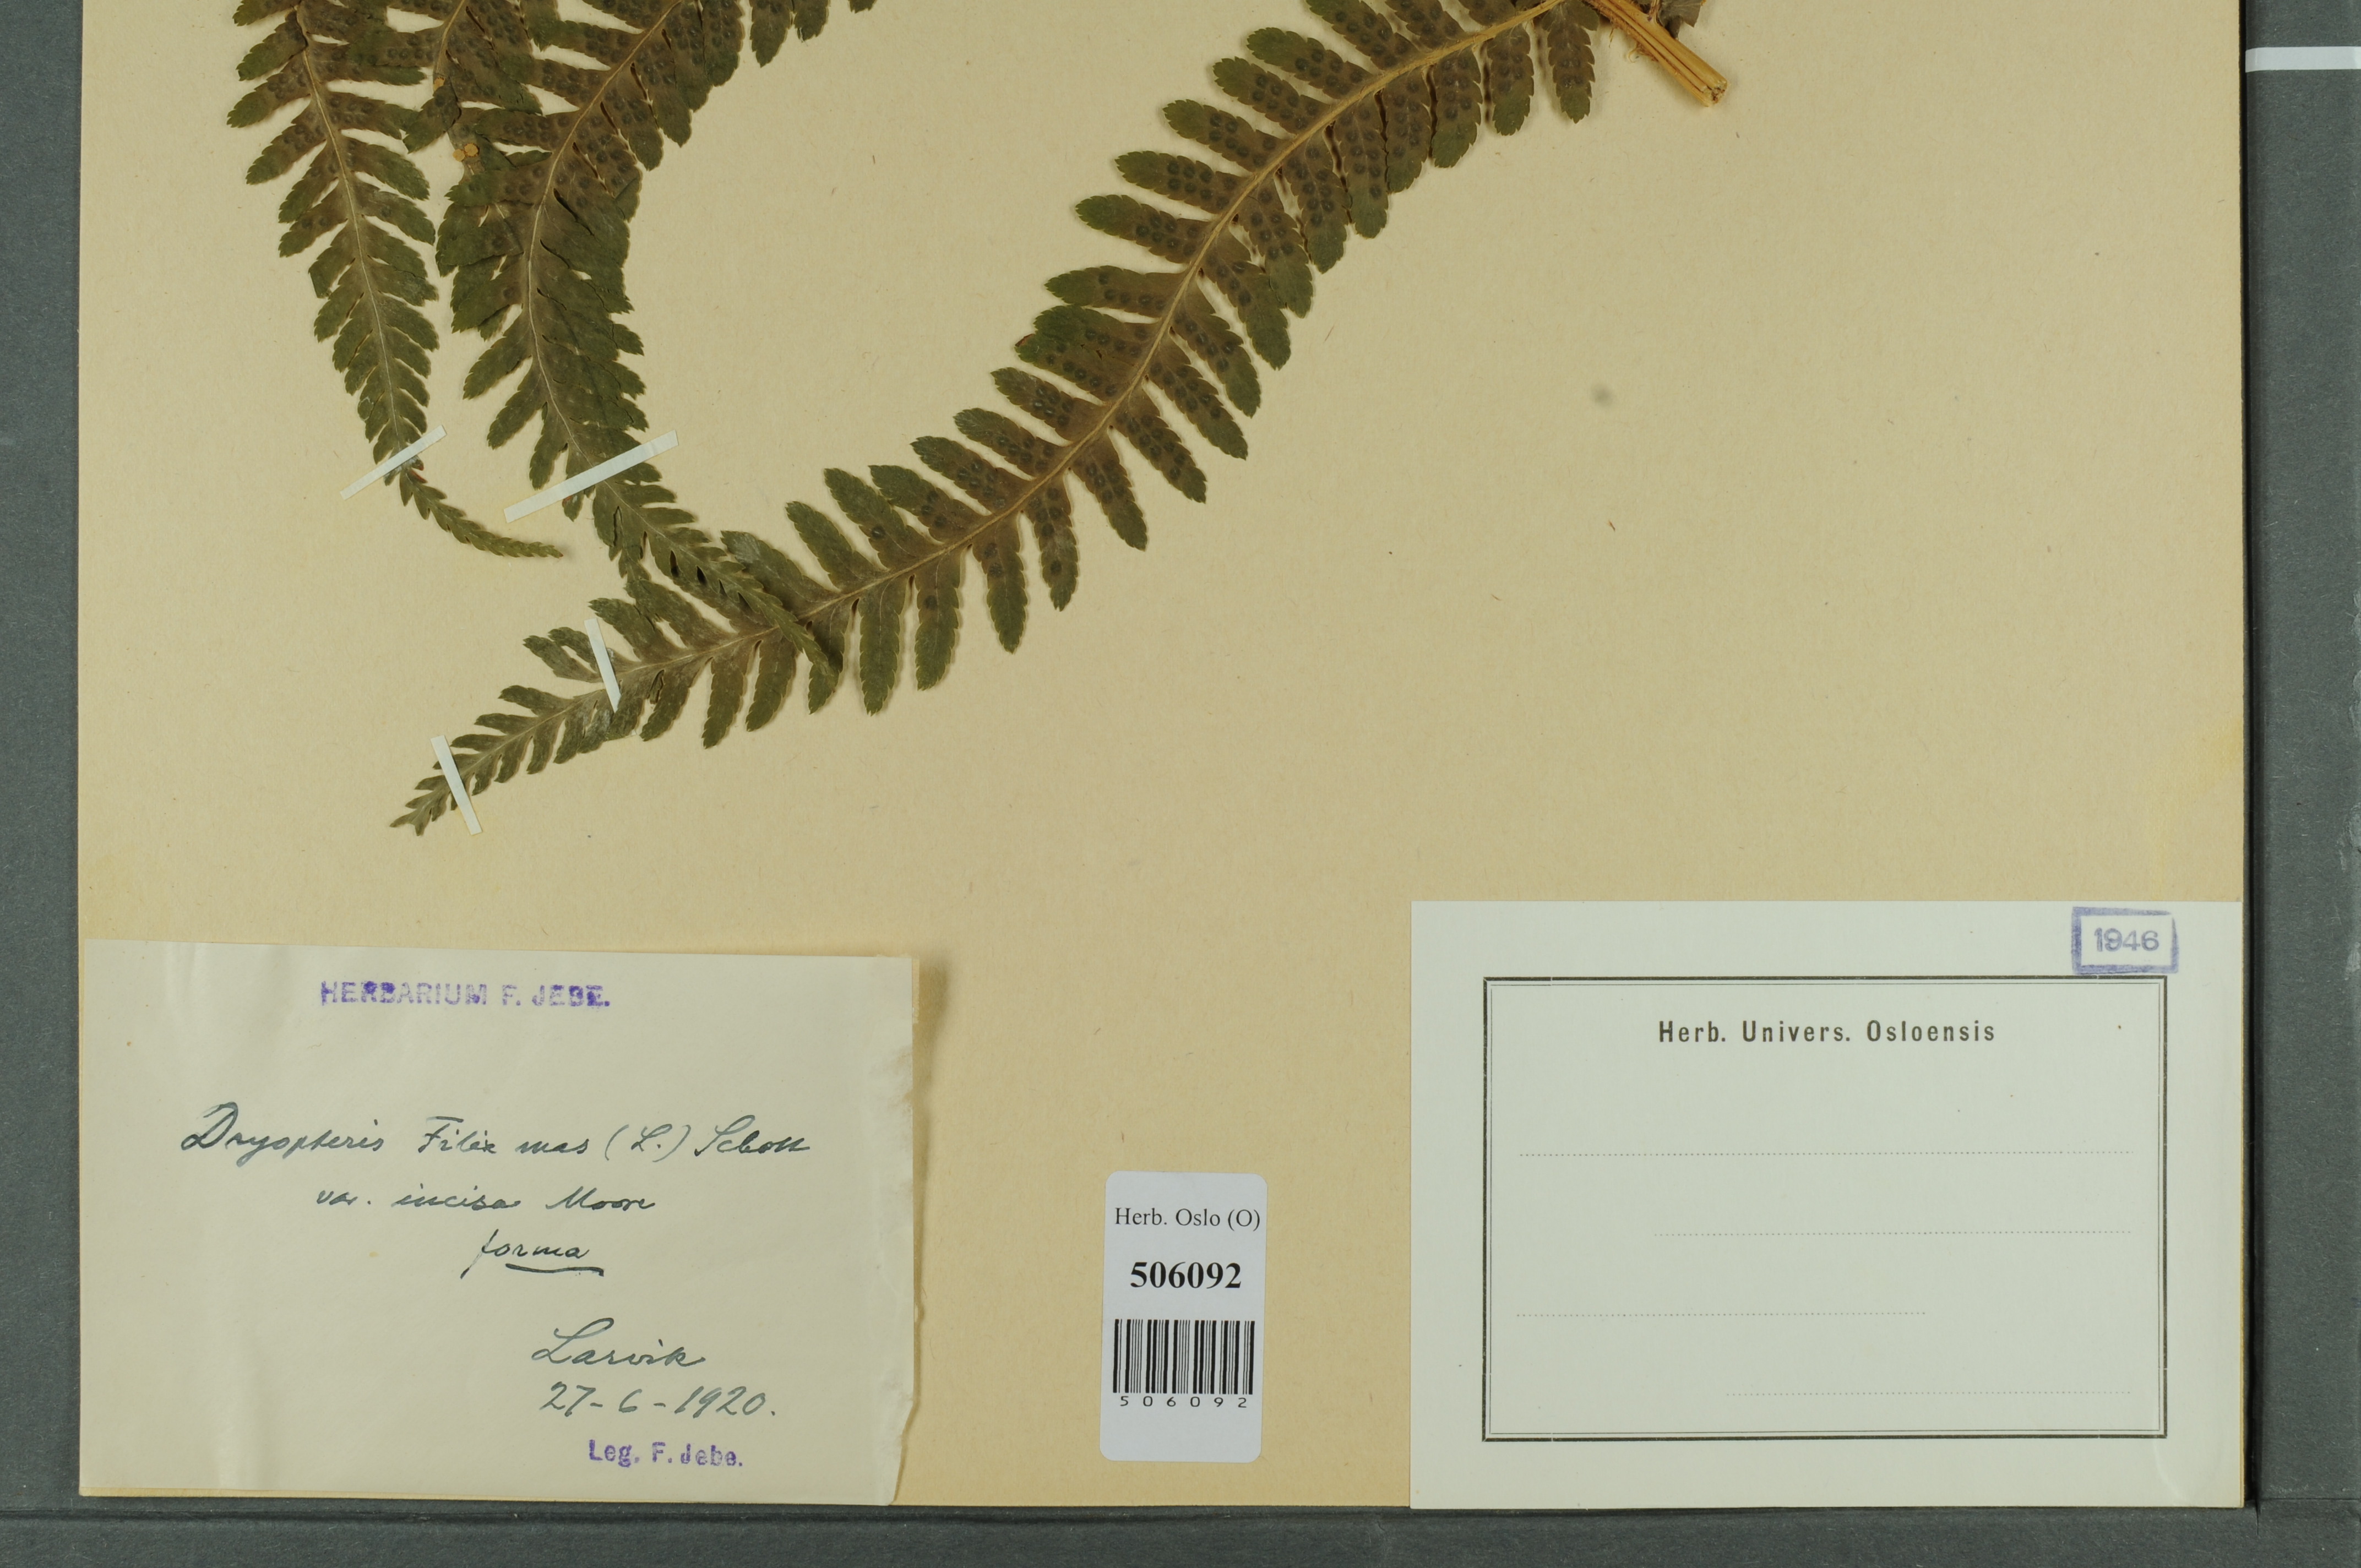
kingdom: Plantae
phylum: Tracheophyta
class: Polypodiopsida
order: Polypodiales
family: Dryopteridaceae
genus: Dryopteris
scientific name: Dryopteris filix-mas
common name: Male fern
